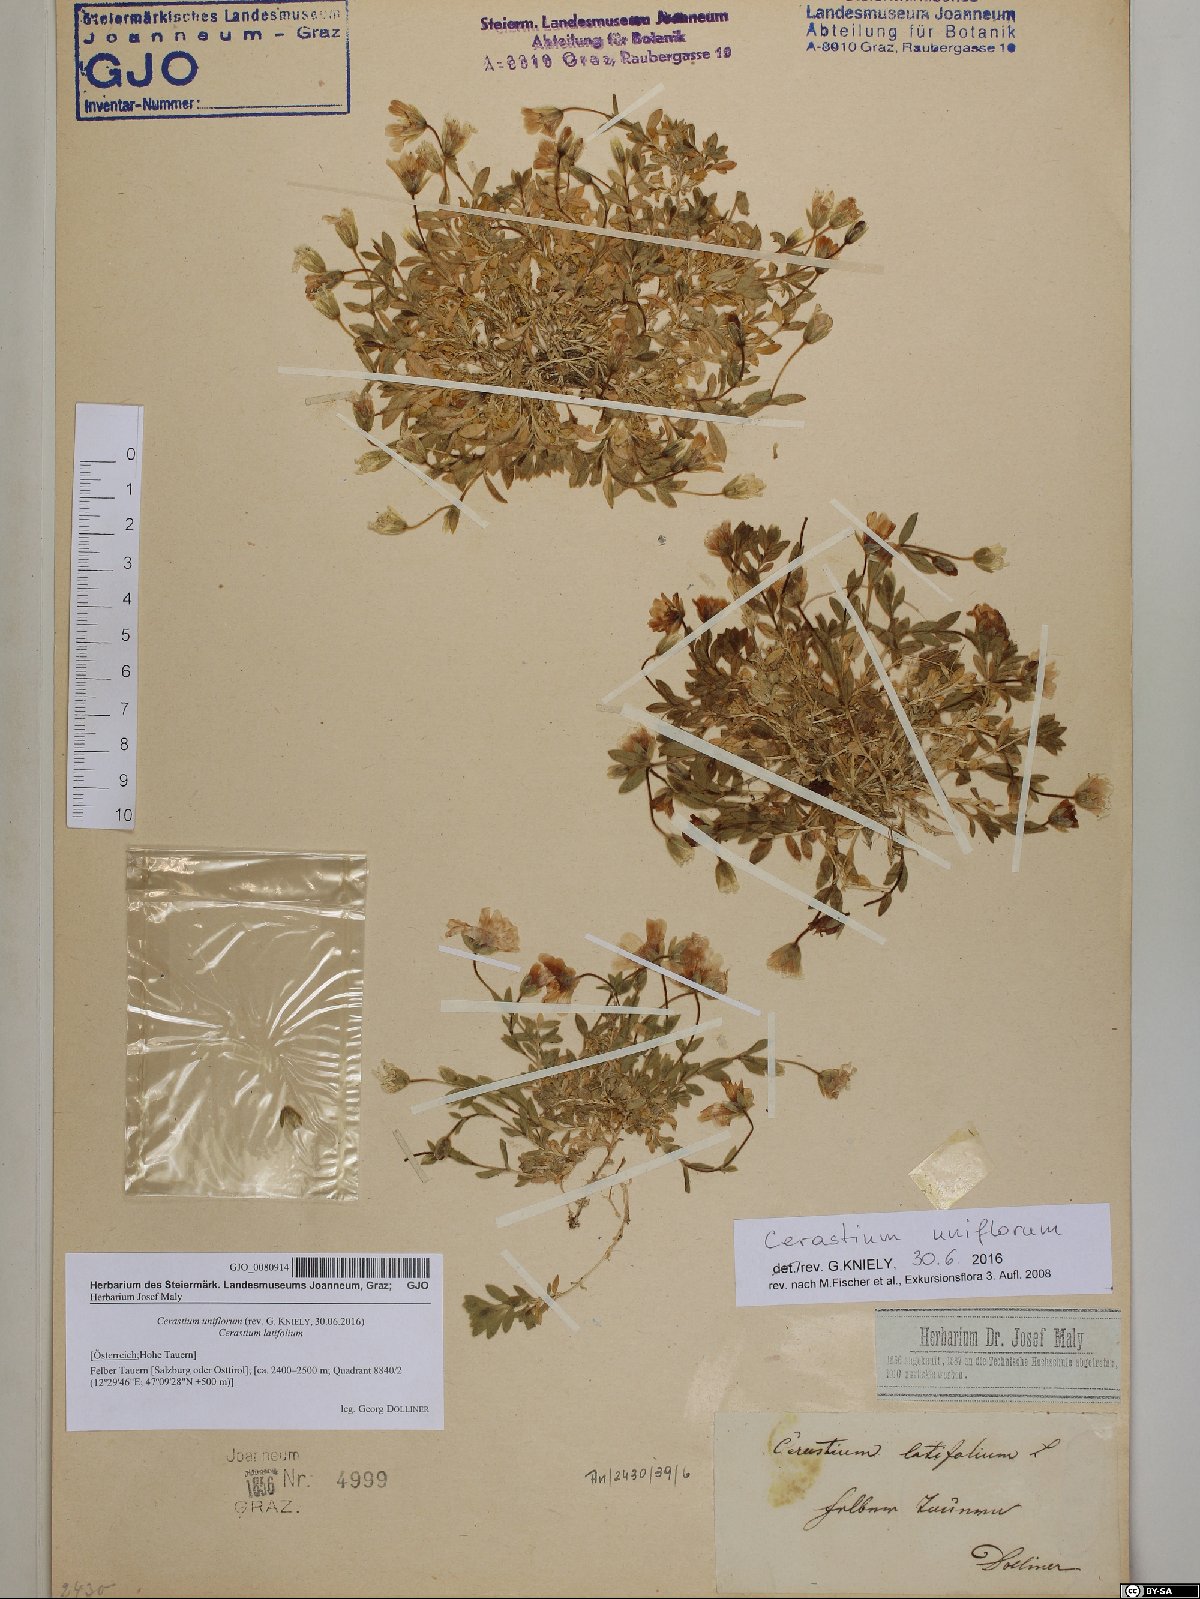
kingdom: Plantae
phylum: Tracheophyta
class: Magnoliopsida
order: Caryophyllales
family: Caryophyllaceae
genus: Cerastium
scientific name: Cerastium uniflorum
